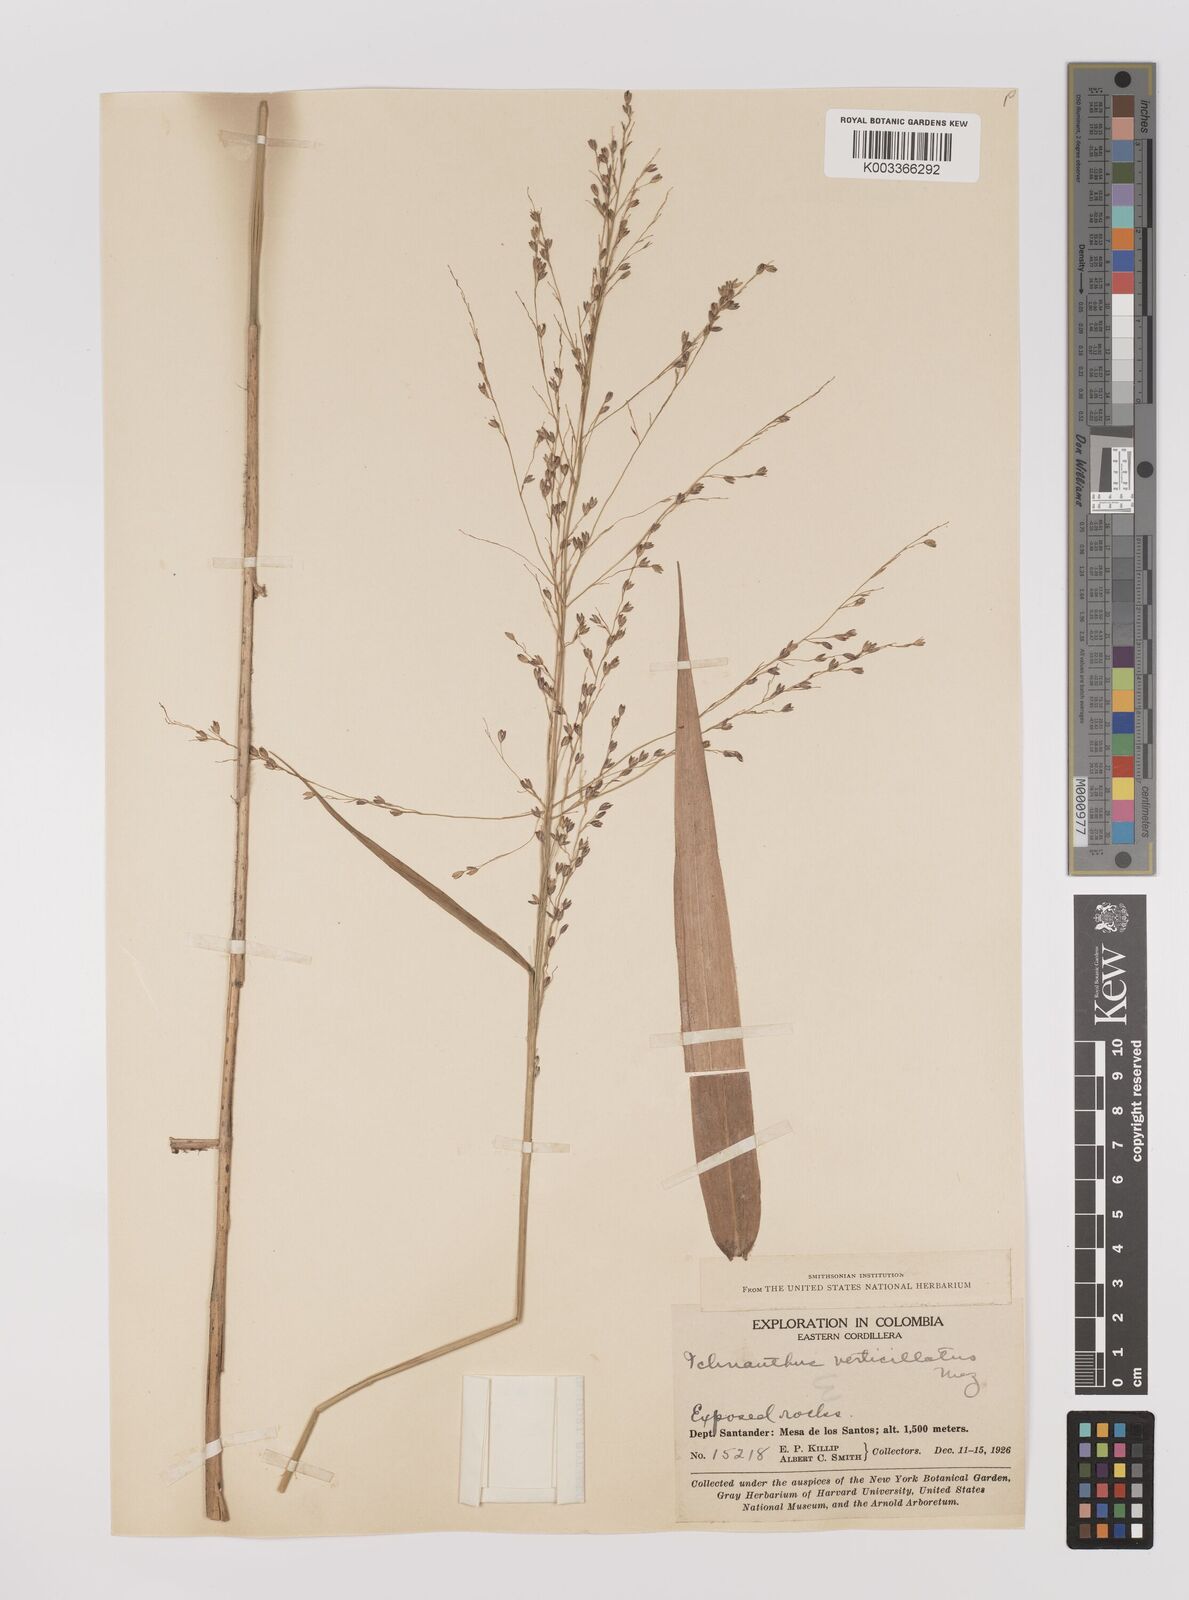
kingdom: Plantae
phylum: Tracheophyta
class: Liliopsida
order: Poales
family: Poaceae
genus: Ichnanthus
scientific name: Ichnanthus calvescens
